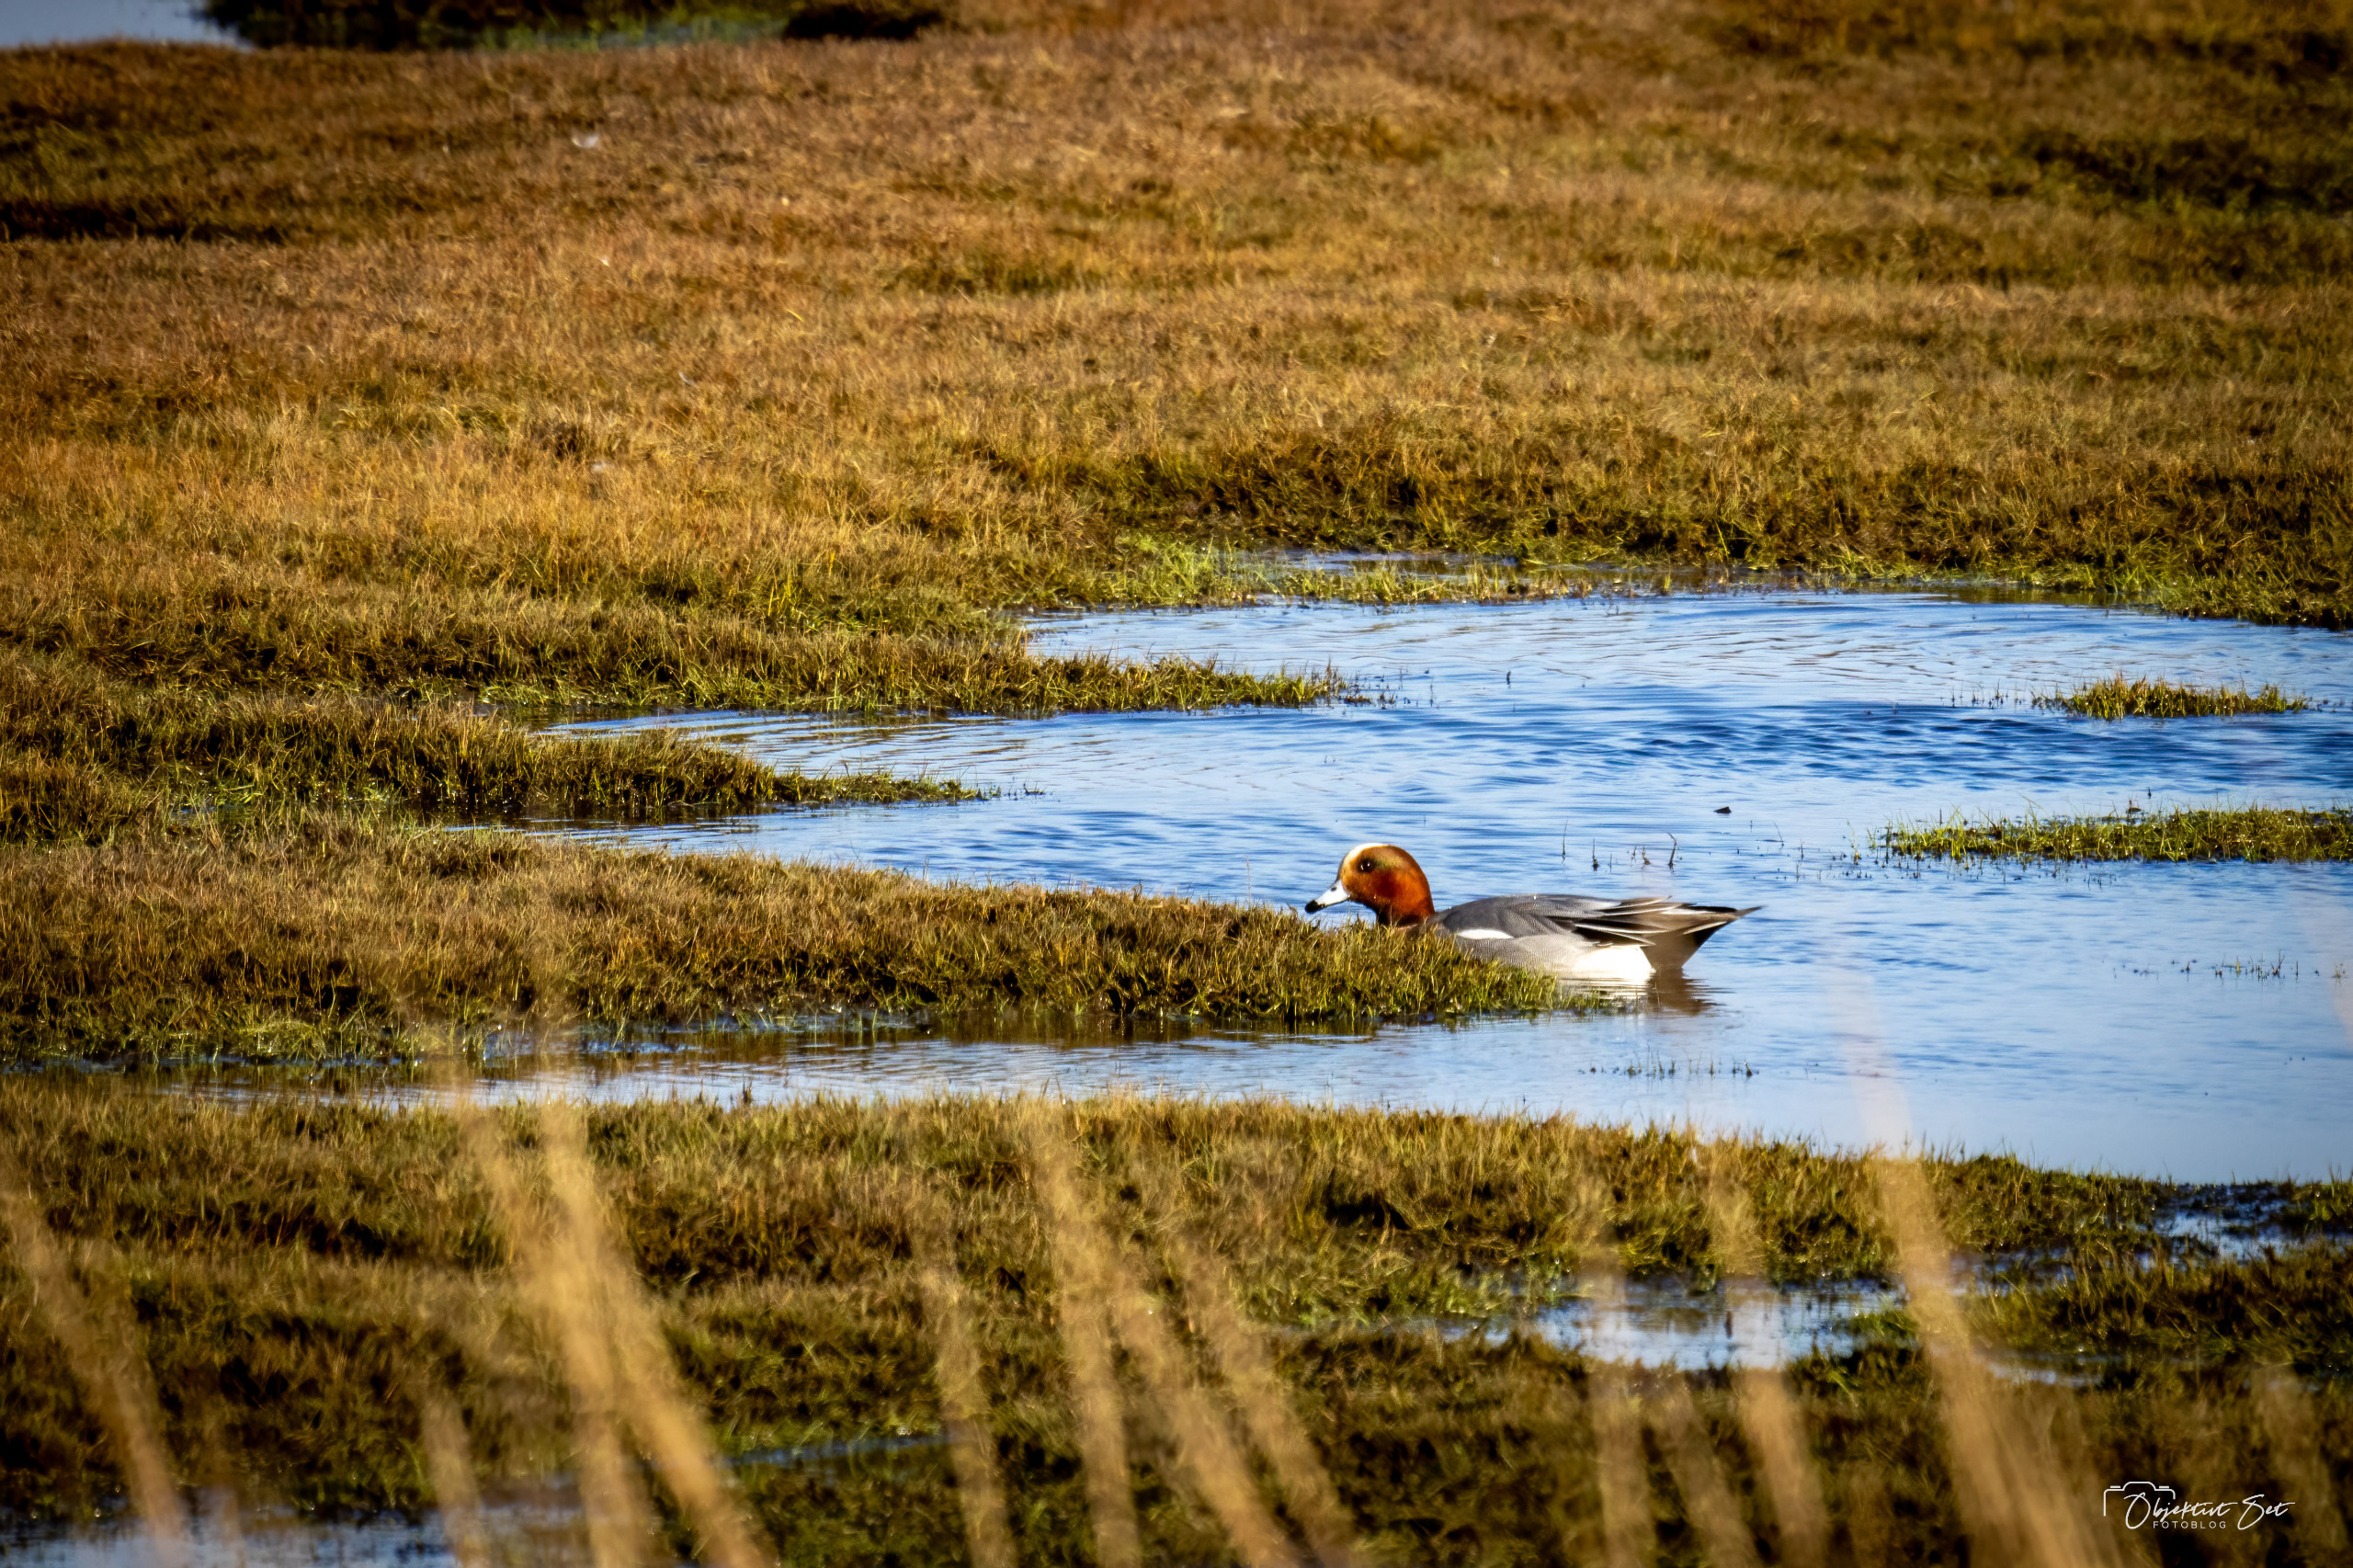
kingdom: Animalia
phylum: Chordata
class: Aves
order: Anseriformes
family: Anatidae
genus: Mareca
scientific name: Mareca penelope
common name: Pibeand
